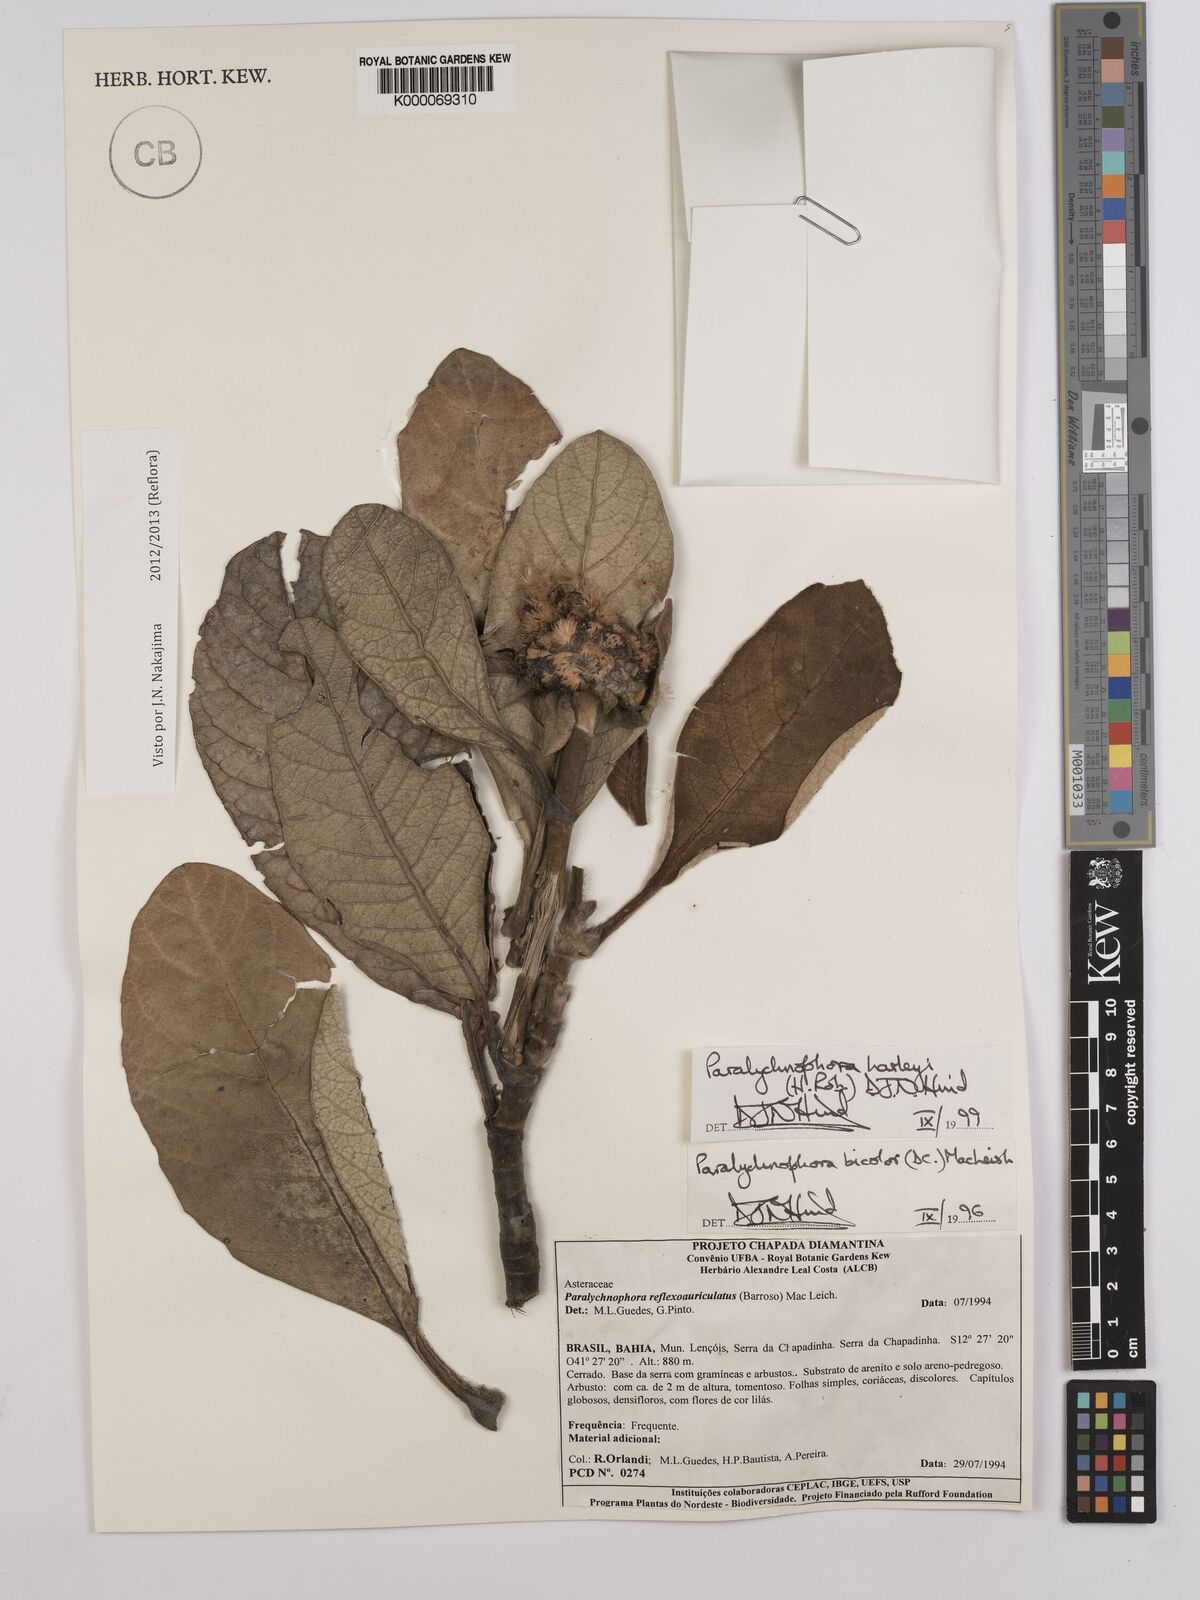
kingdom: Plantae
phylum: Tracheophyta
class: Magnoliopsida
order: Asterales
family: Asteraceae
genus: Paralychnophora
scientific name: Paralychnophora harleyi
